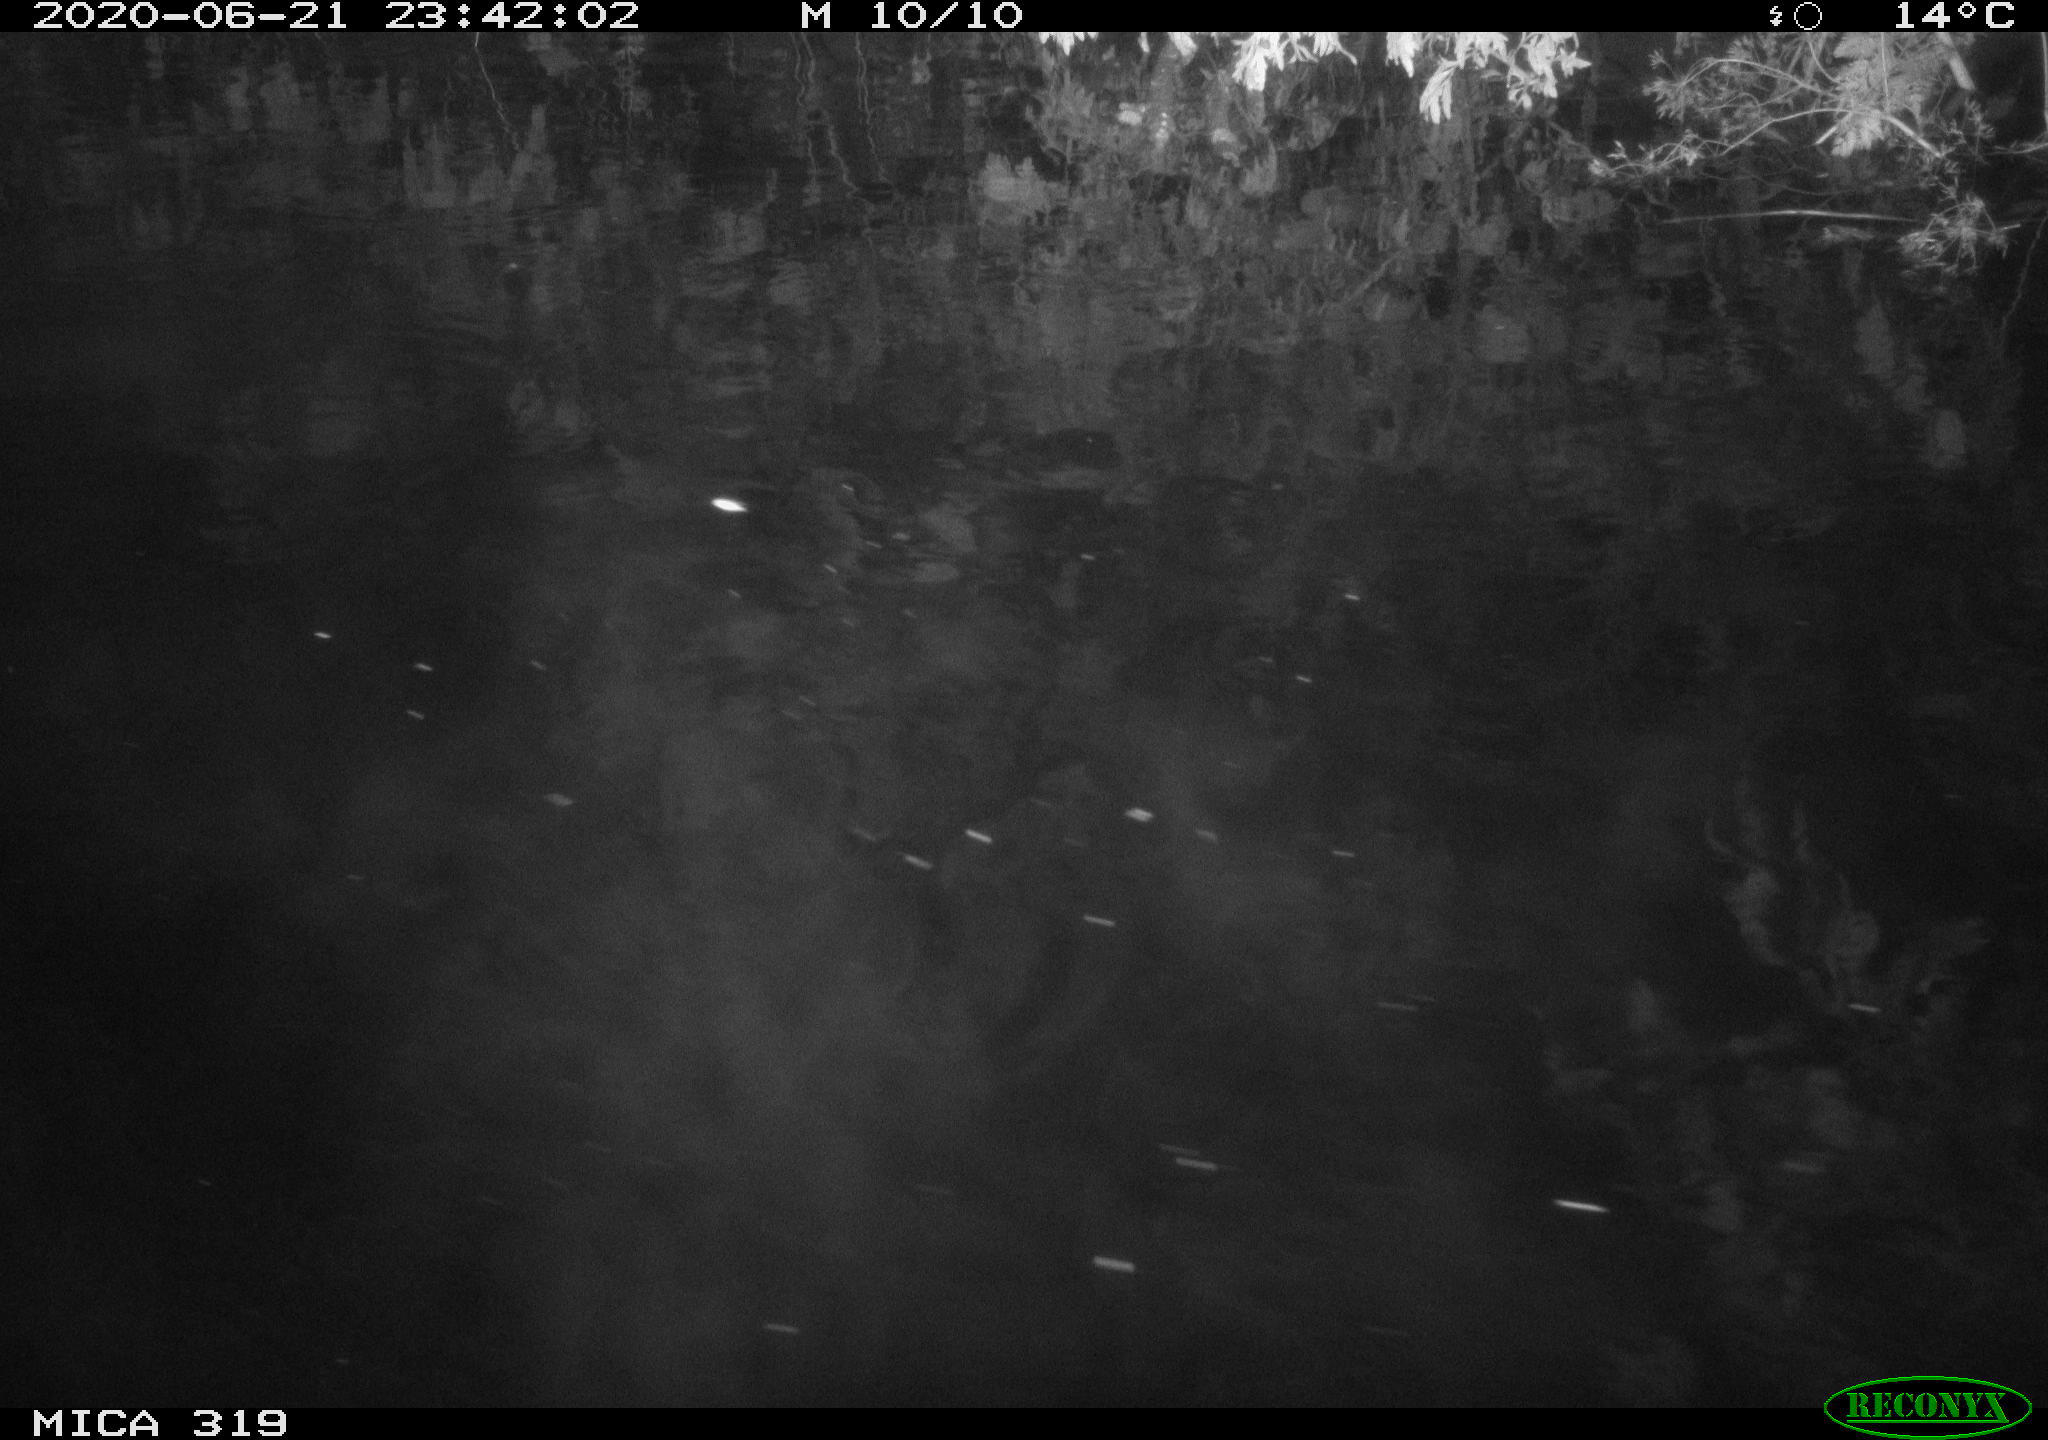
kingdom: Animalia
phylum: Chordata
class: Aves
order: Anseriformes
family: Anatidae
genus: Anas
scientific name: Anas platyrhynchos
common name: Mallard
